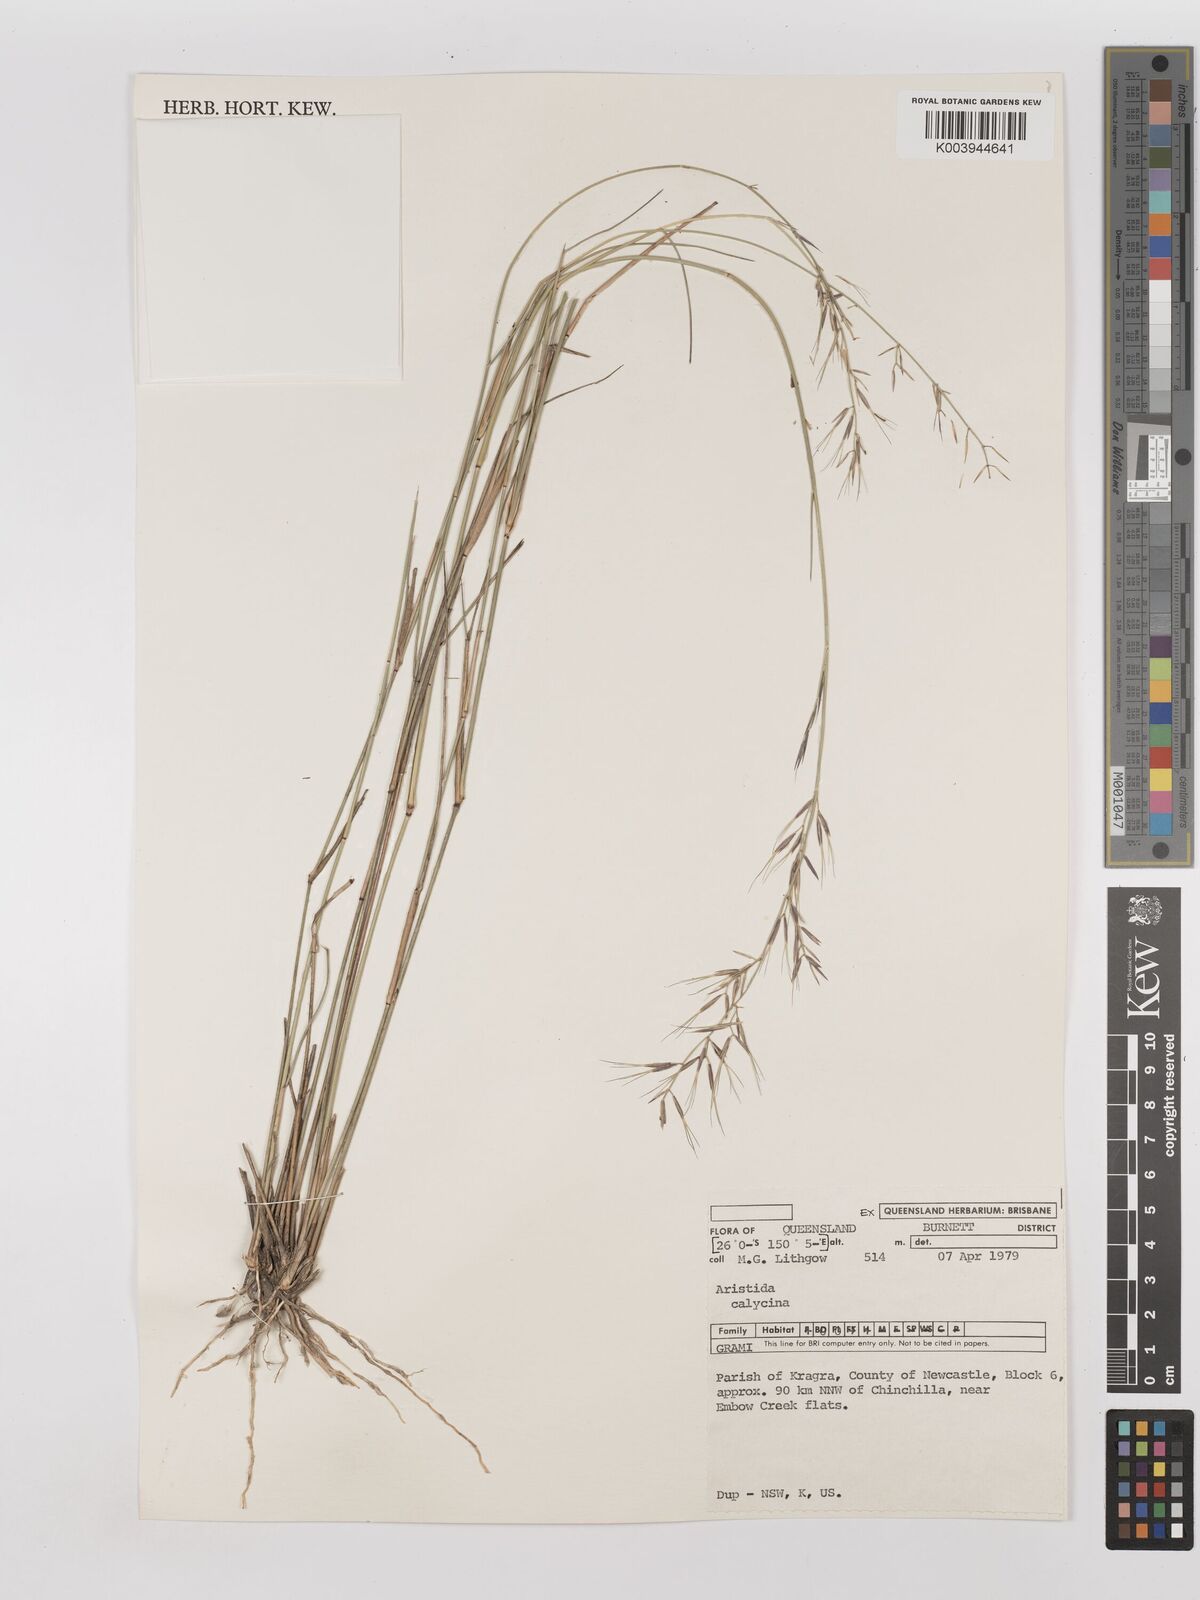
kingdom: Plantae
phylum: Tracheophyta
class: Liliopsida
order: Poales
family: Poaceae
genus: Aristida
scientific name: Aristida calycina
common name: Dark wire grass
